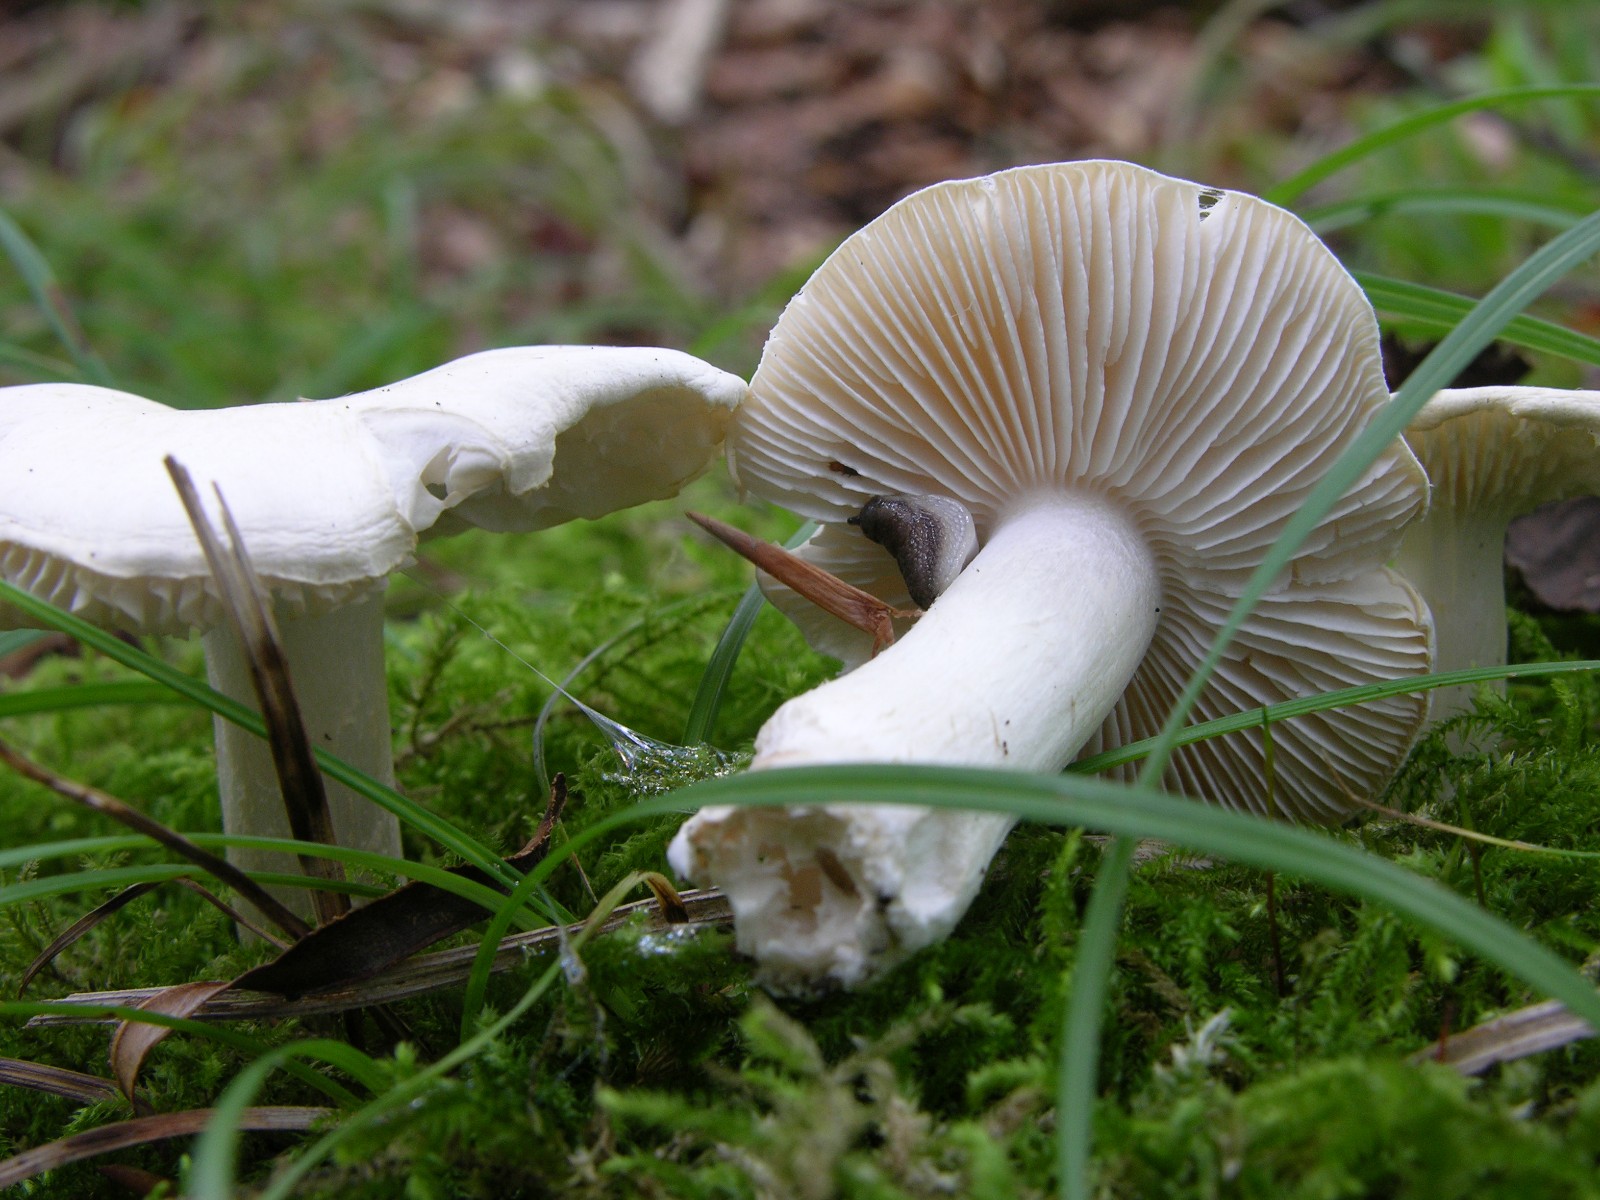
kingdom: Fungi
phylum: Basidiomycota
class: Agaricomycetes
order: Agaricales
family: Tricholomataceae
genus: Tricholoma
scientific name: Tricholoma terreum
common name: jordfarvet ridderhat
